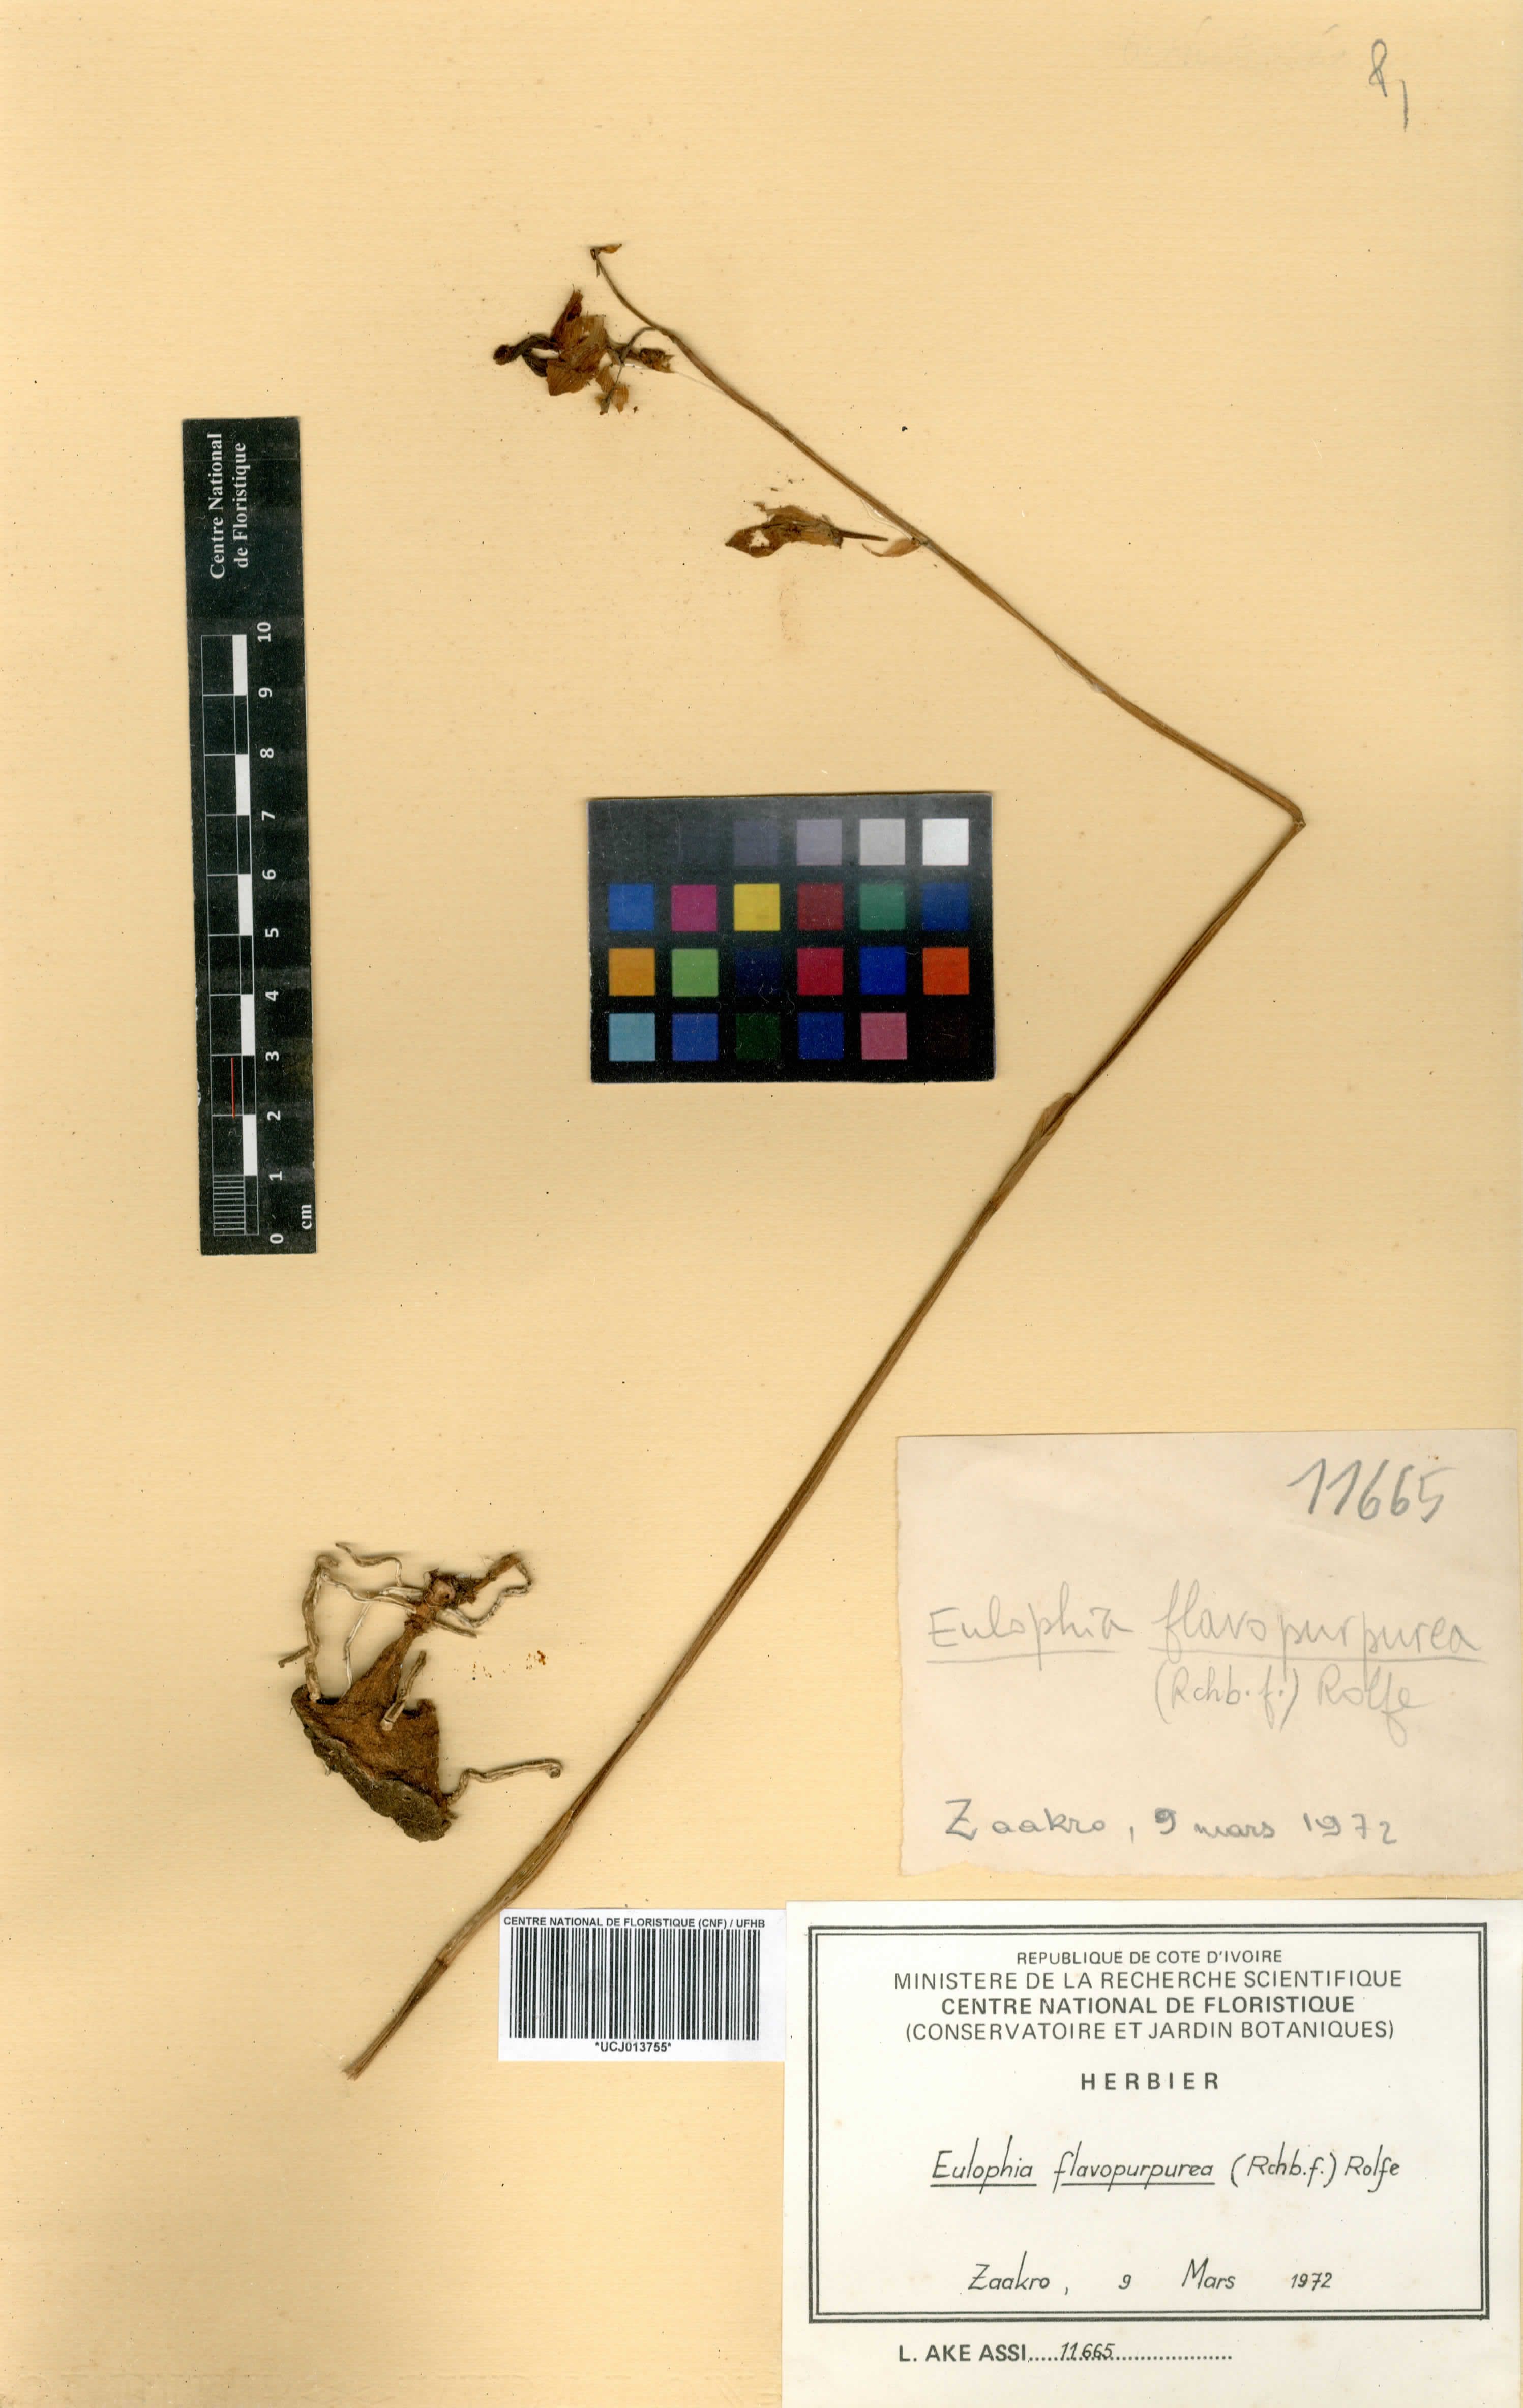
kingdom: Plantae
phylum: Tracheophyta
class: Liliopsida
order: Asparagales
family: Orchidaceae
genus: Eulophia
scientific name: Eulophia flavopurpurea
